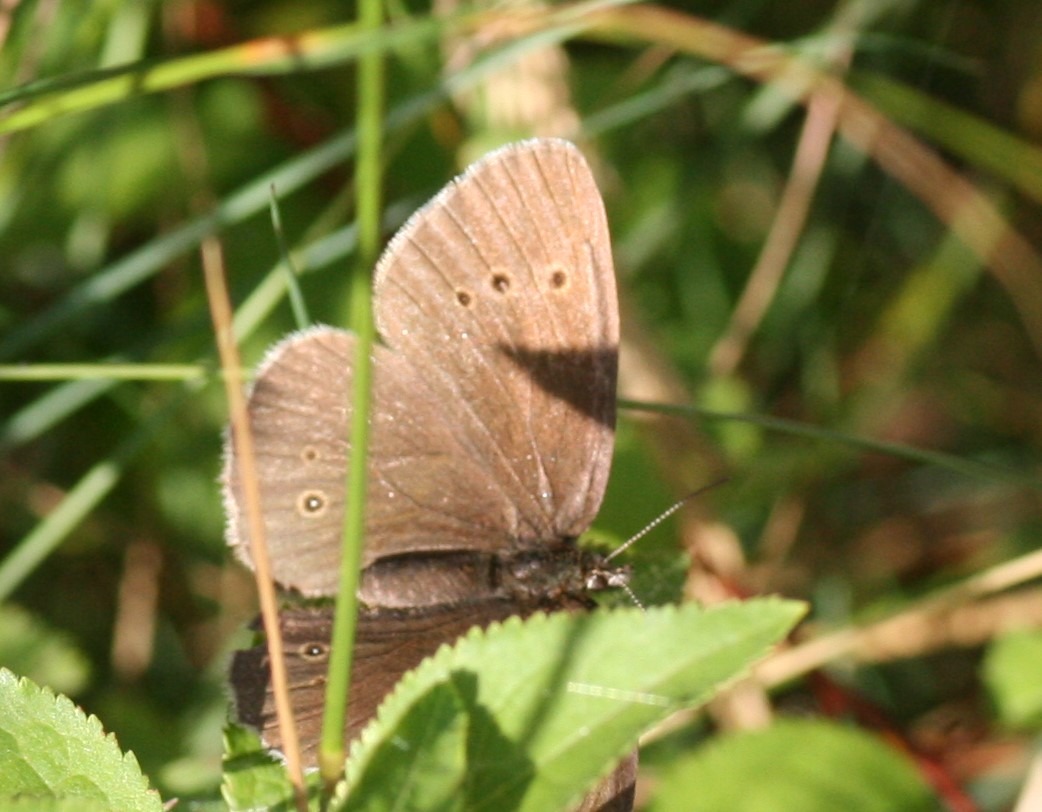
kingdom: Animalia
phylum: Arthropoda
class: Insecta
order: Lepidoptera
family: Nymphalidae
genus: Aphantopus
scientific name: Aphantopus hyperantus
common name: Engrandøje
